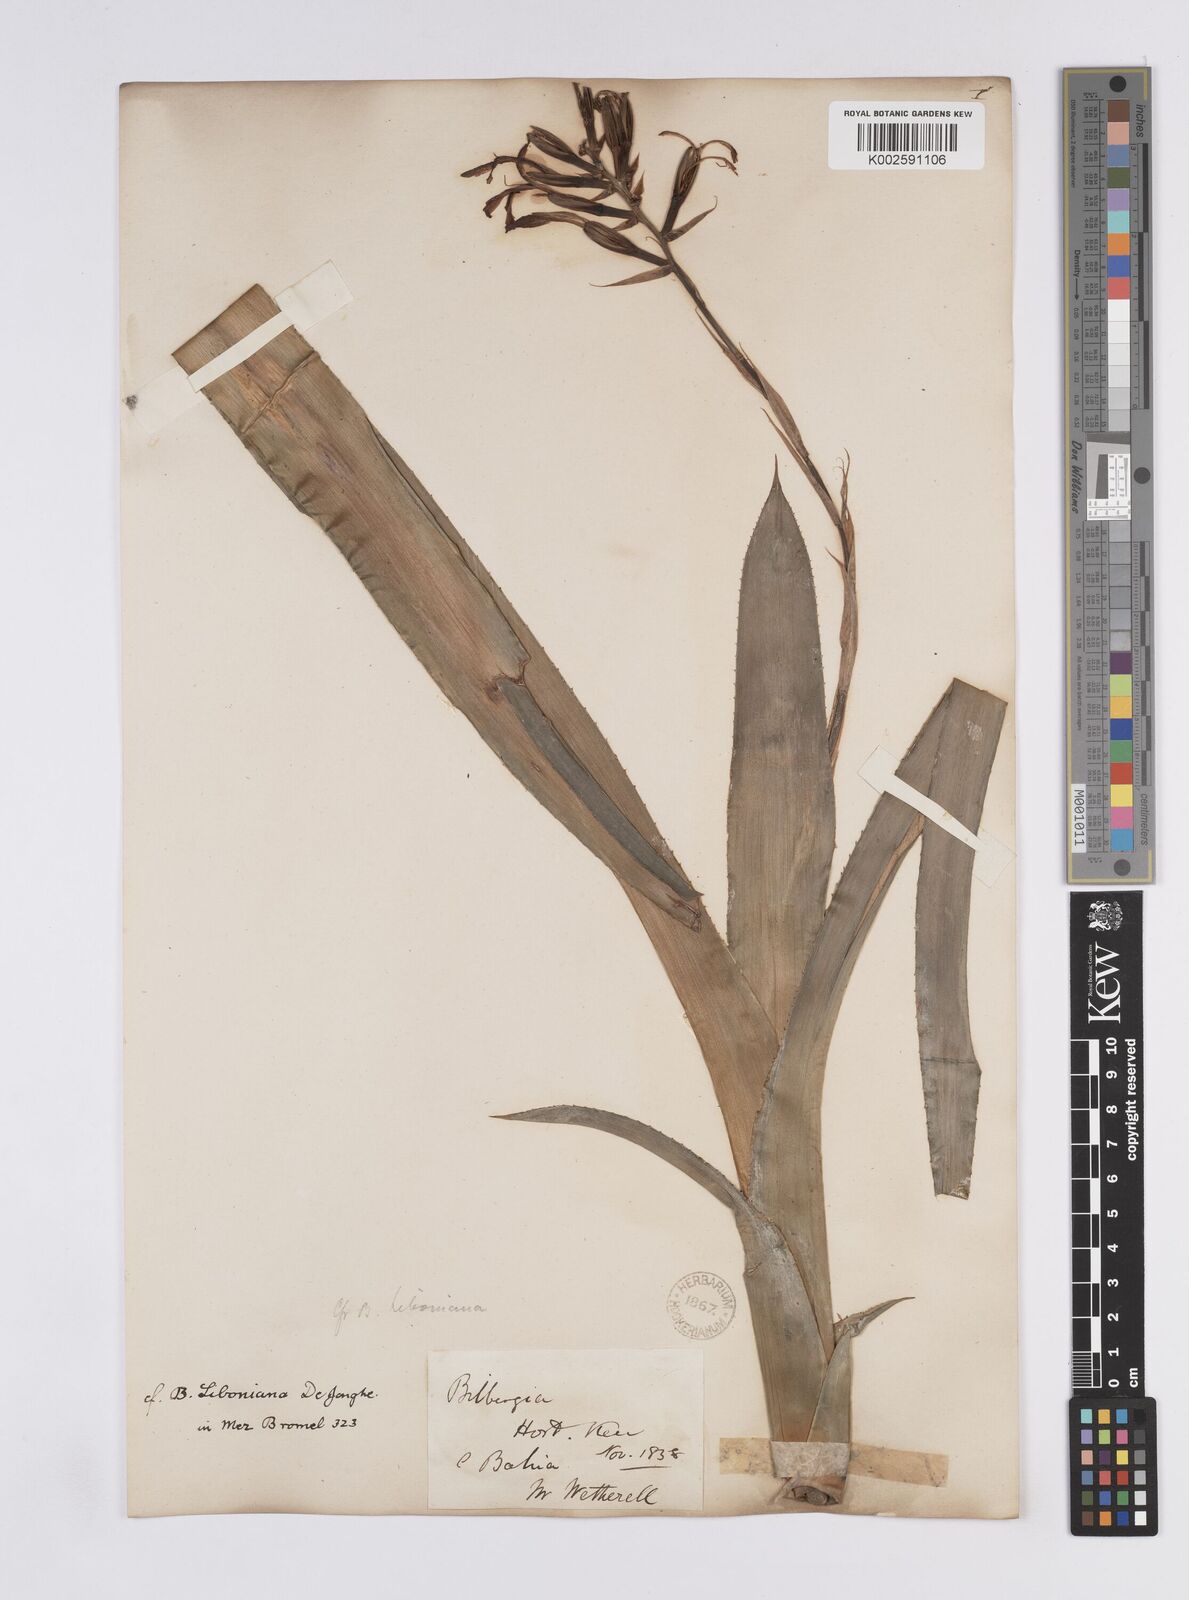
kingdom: Plantae
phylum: Tracheophyta
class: Liliopsida
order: Poales
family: Bromeliaceae
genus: Quesnelia
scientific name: Quesnelia liboniana
